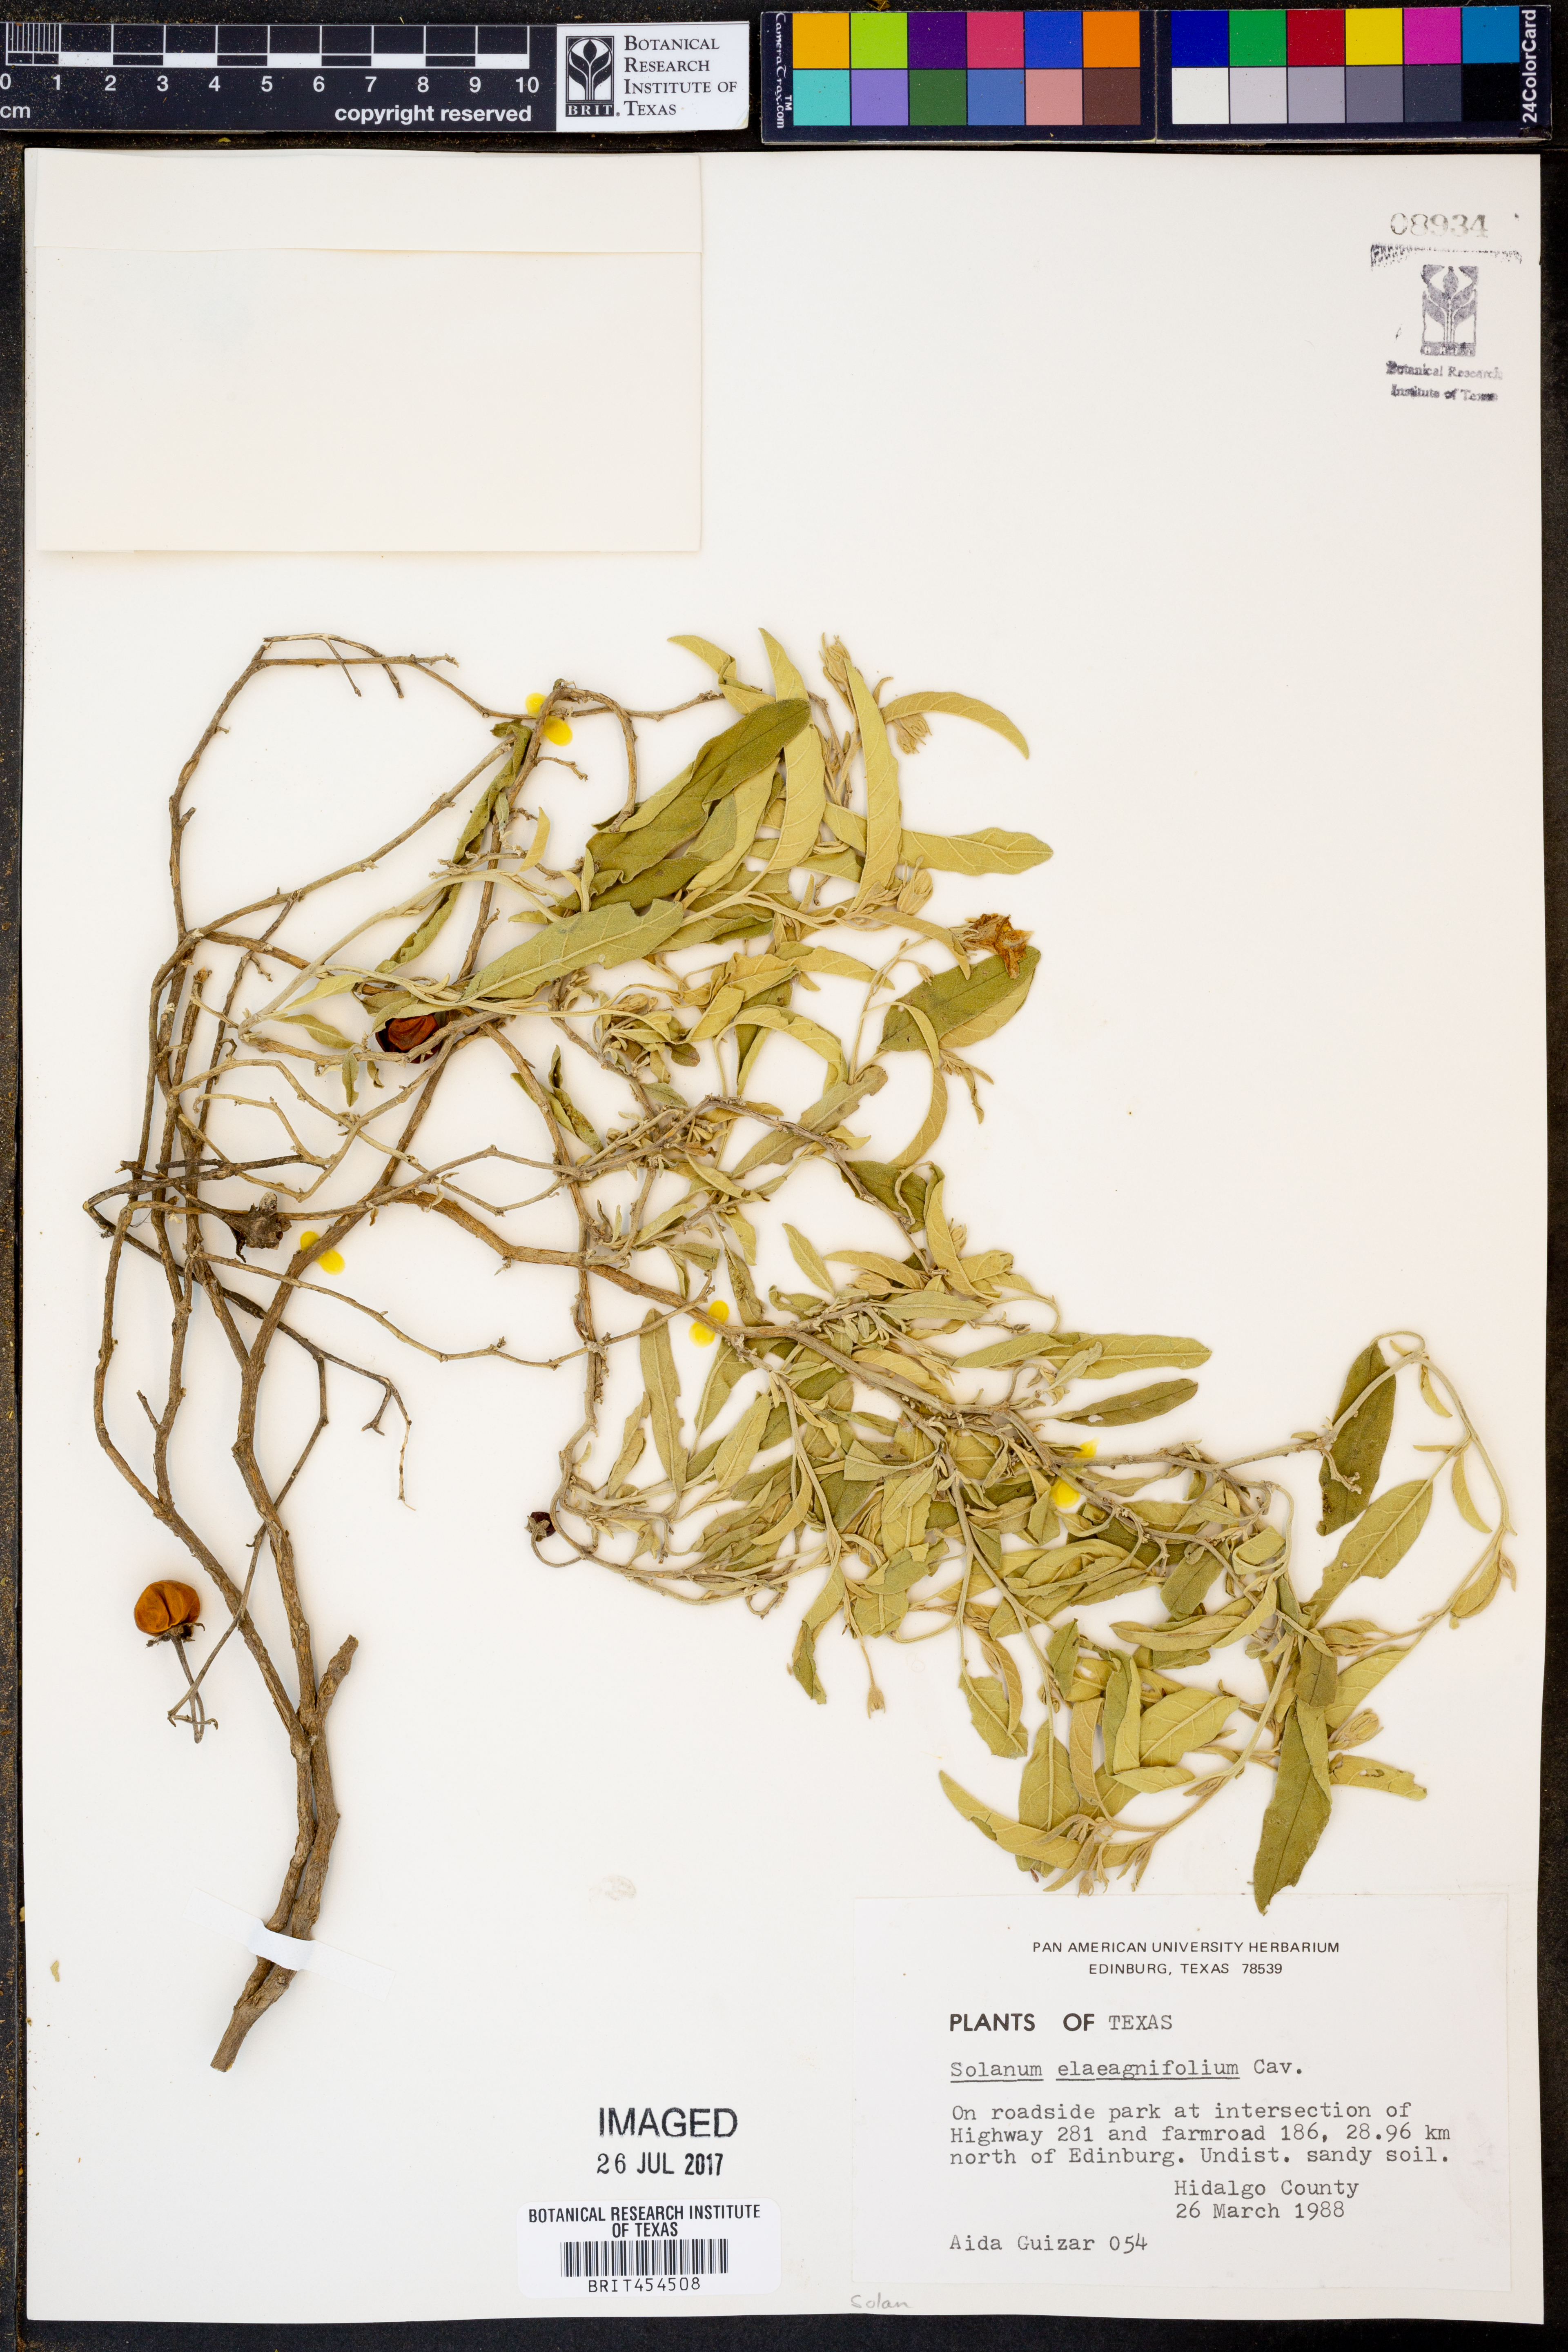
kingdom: Plantae
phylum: Tracheophyta
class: Magnoliopsida
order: Solanales
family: Solanaceae
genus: Solanum
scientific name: Solanum elaeagnifolium
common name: Silverleaf nightshade
